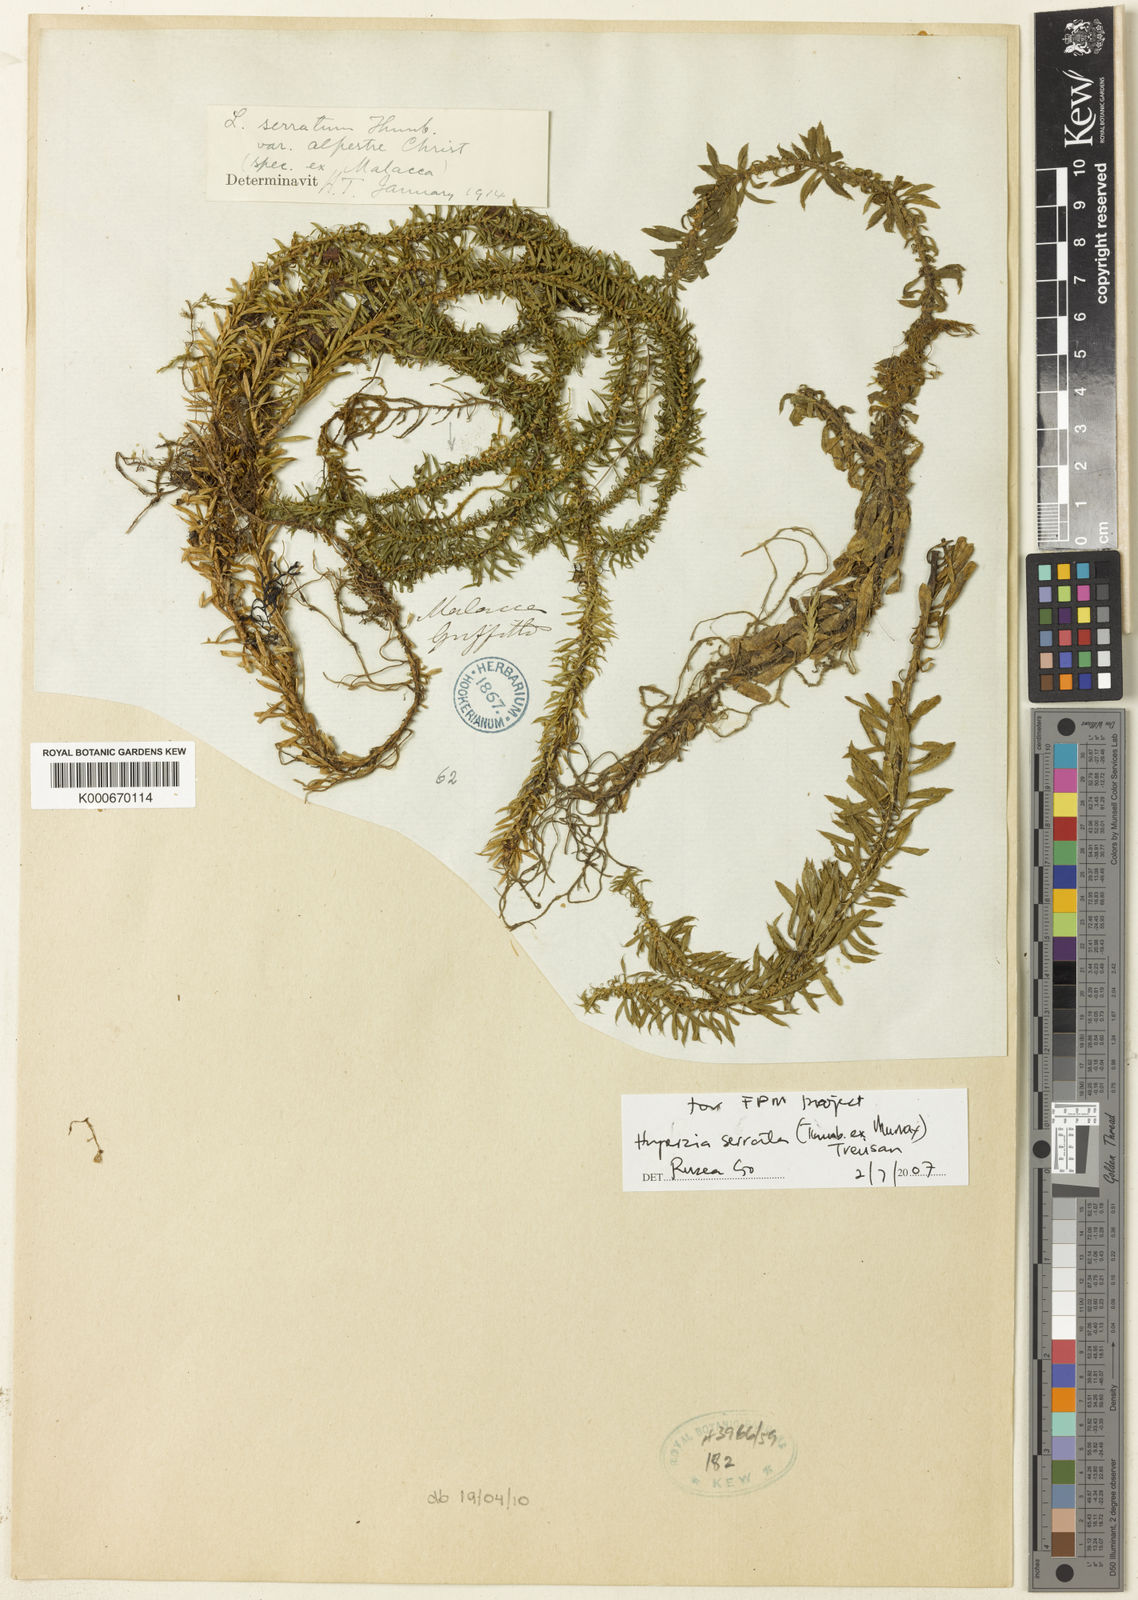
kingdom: Plantae
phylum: Tracheophyta
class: Lycopodiopsida
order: Lycopodiales
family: Lycopodiaceae
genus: Huperzia
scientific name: Huperzia serrata
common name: Toothed club-moss
